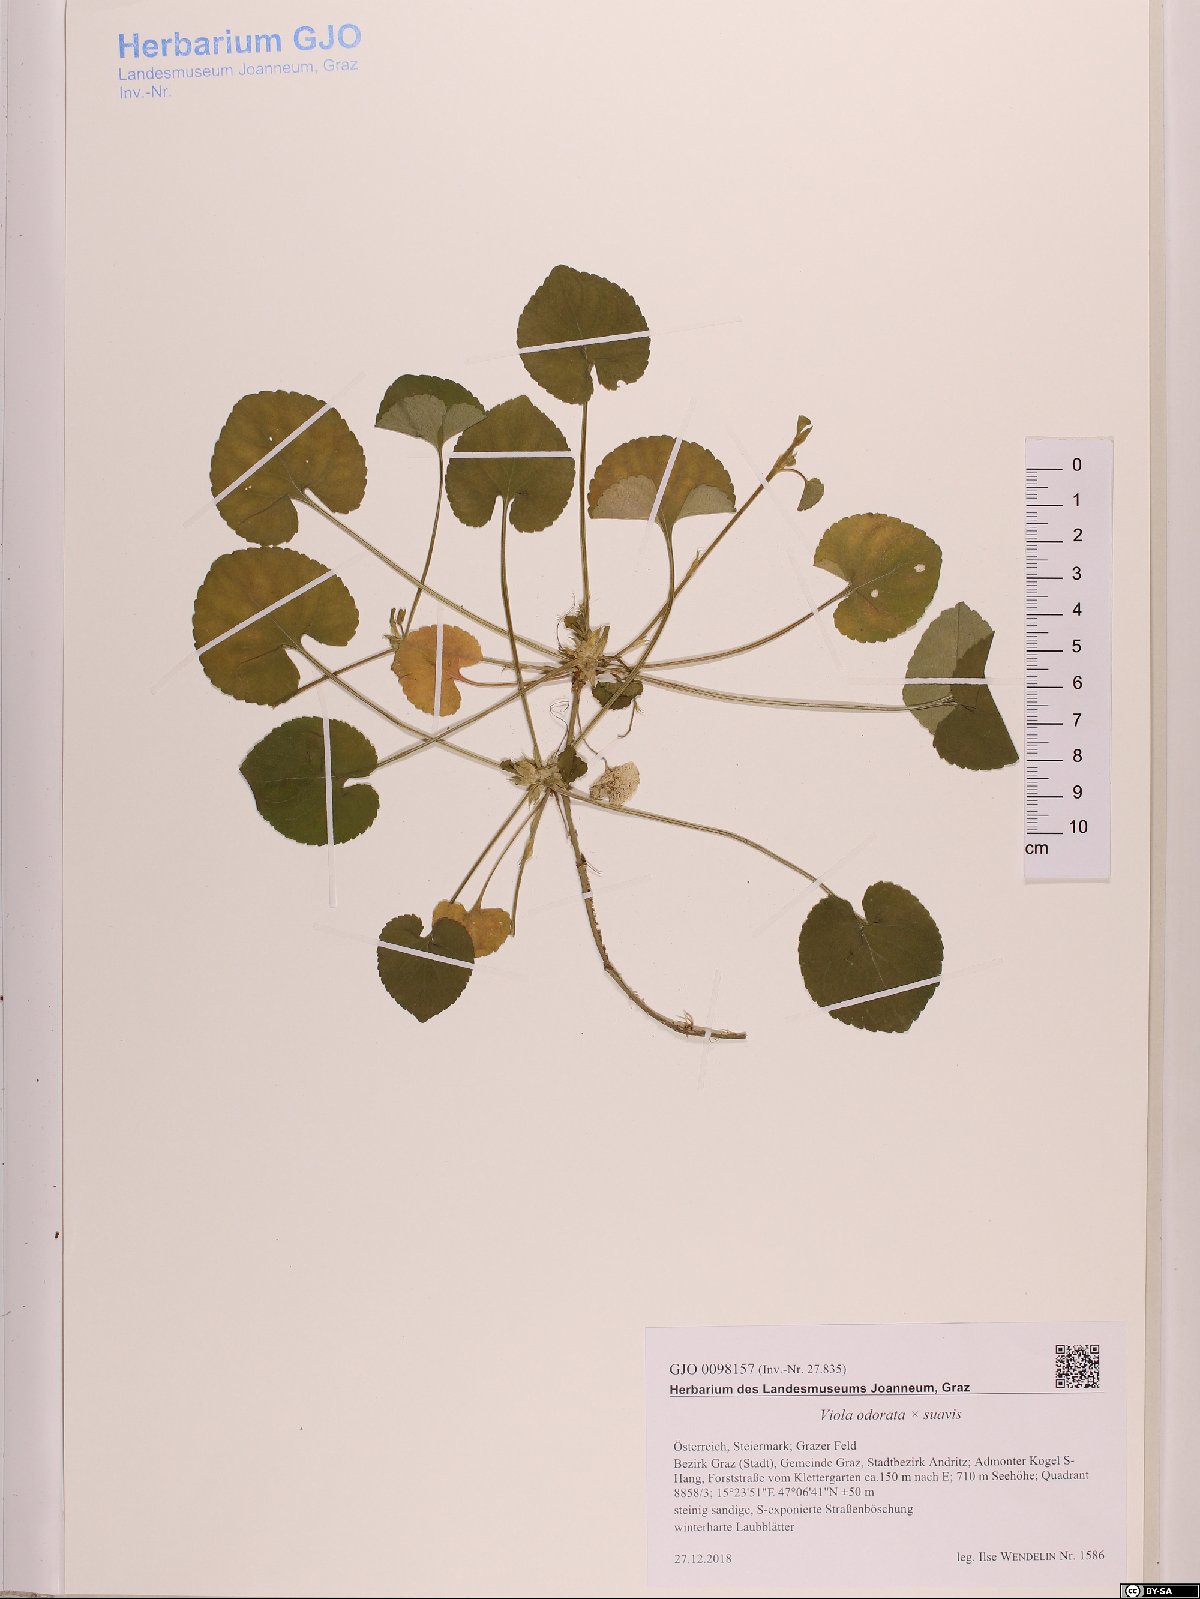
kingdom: Plantae
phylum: Tracheophyta
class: Magnoliopsida
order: Malpighiales
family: Violaceae
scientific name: Violaceae
